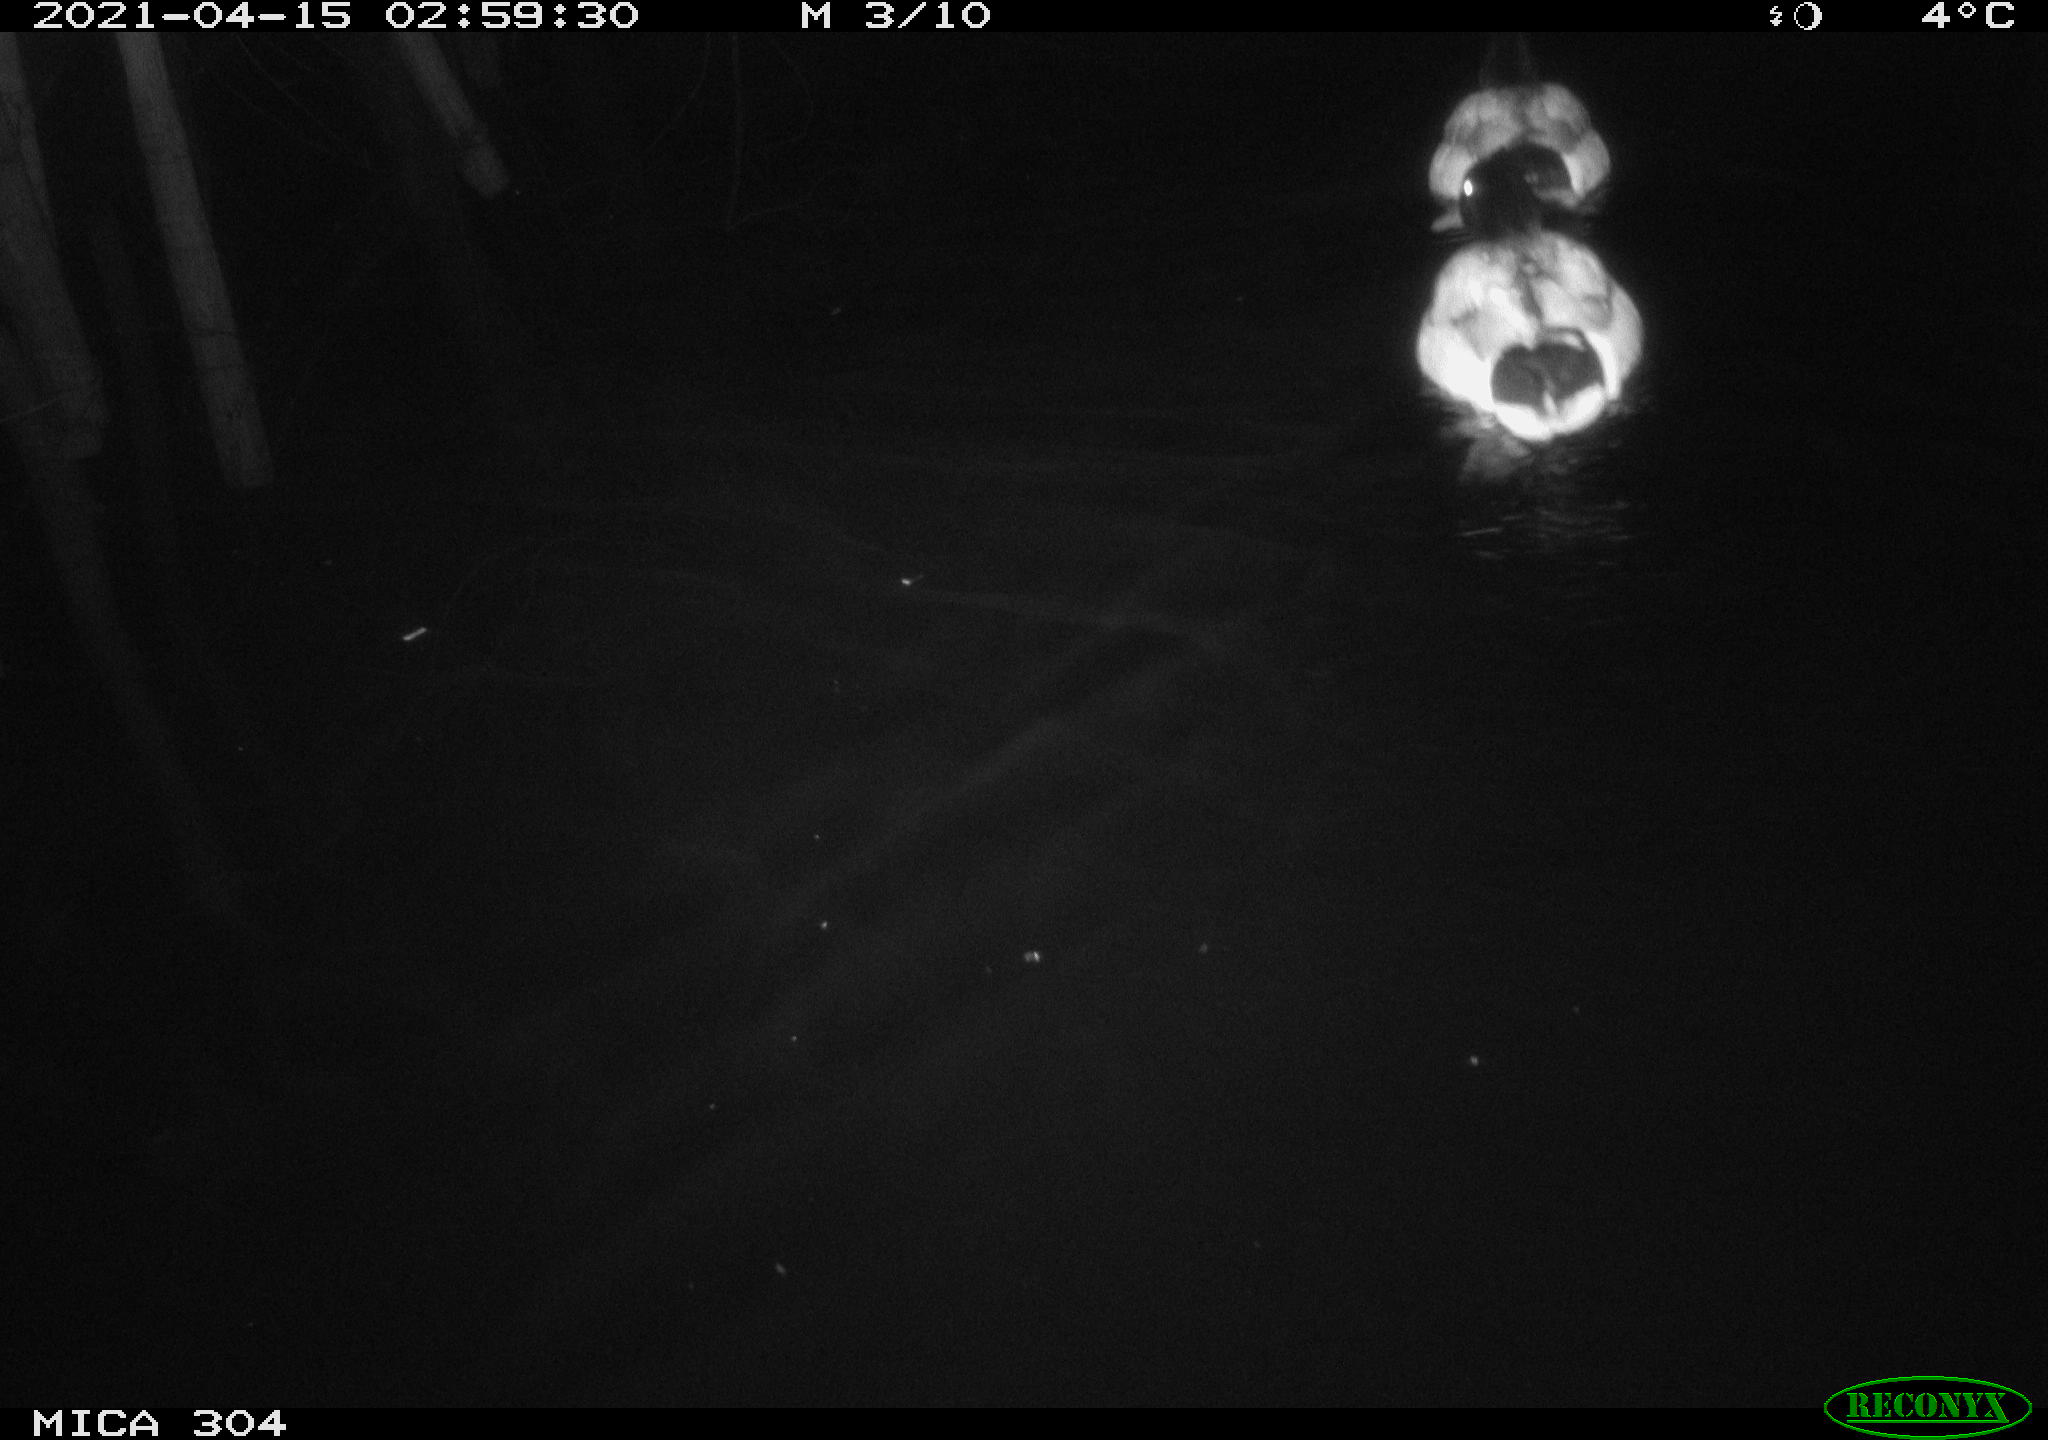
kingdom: Animalia
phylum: Chordata
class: Aves
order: Anseriformes
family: Anatidae
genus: Anas
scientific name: Anas
